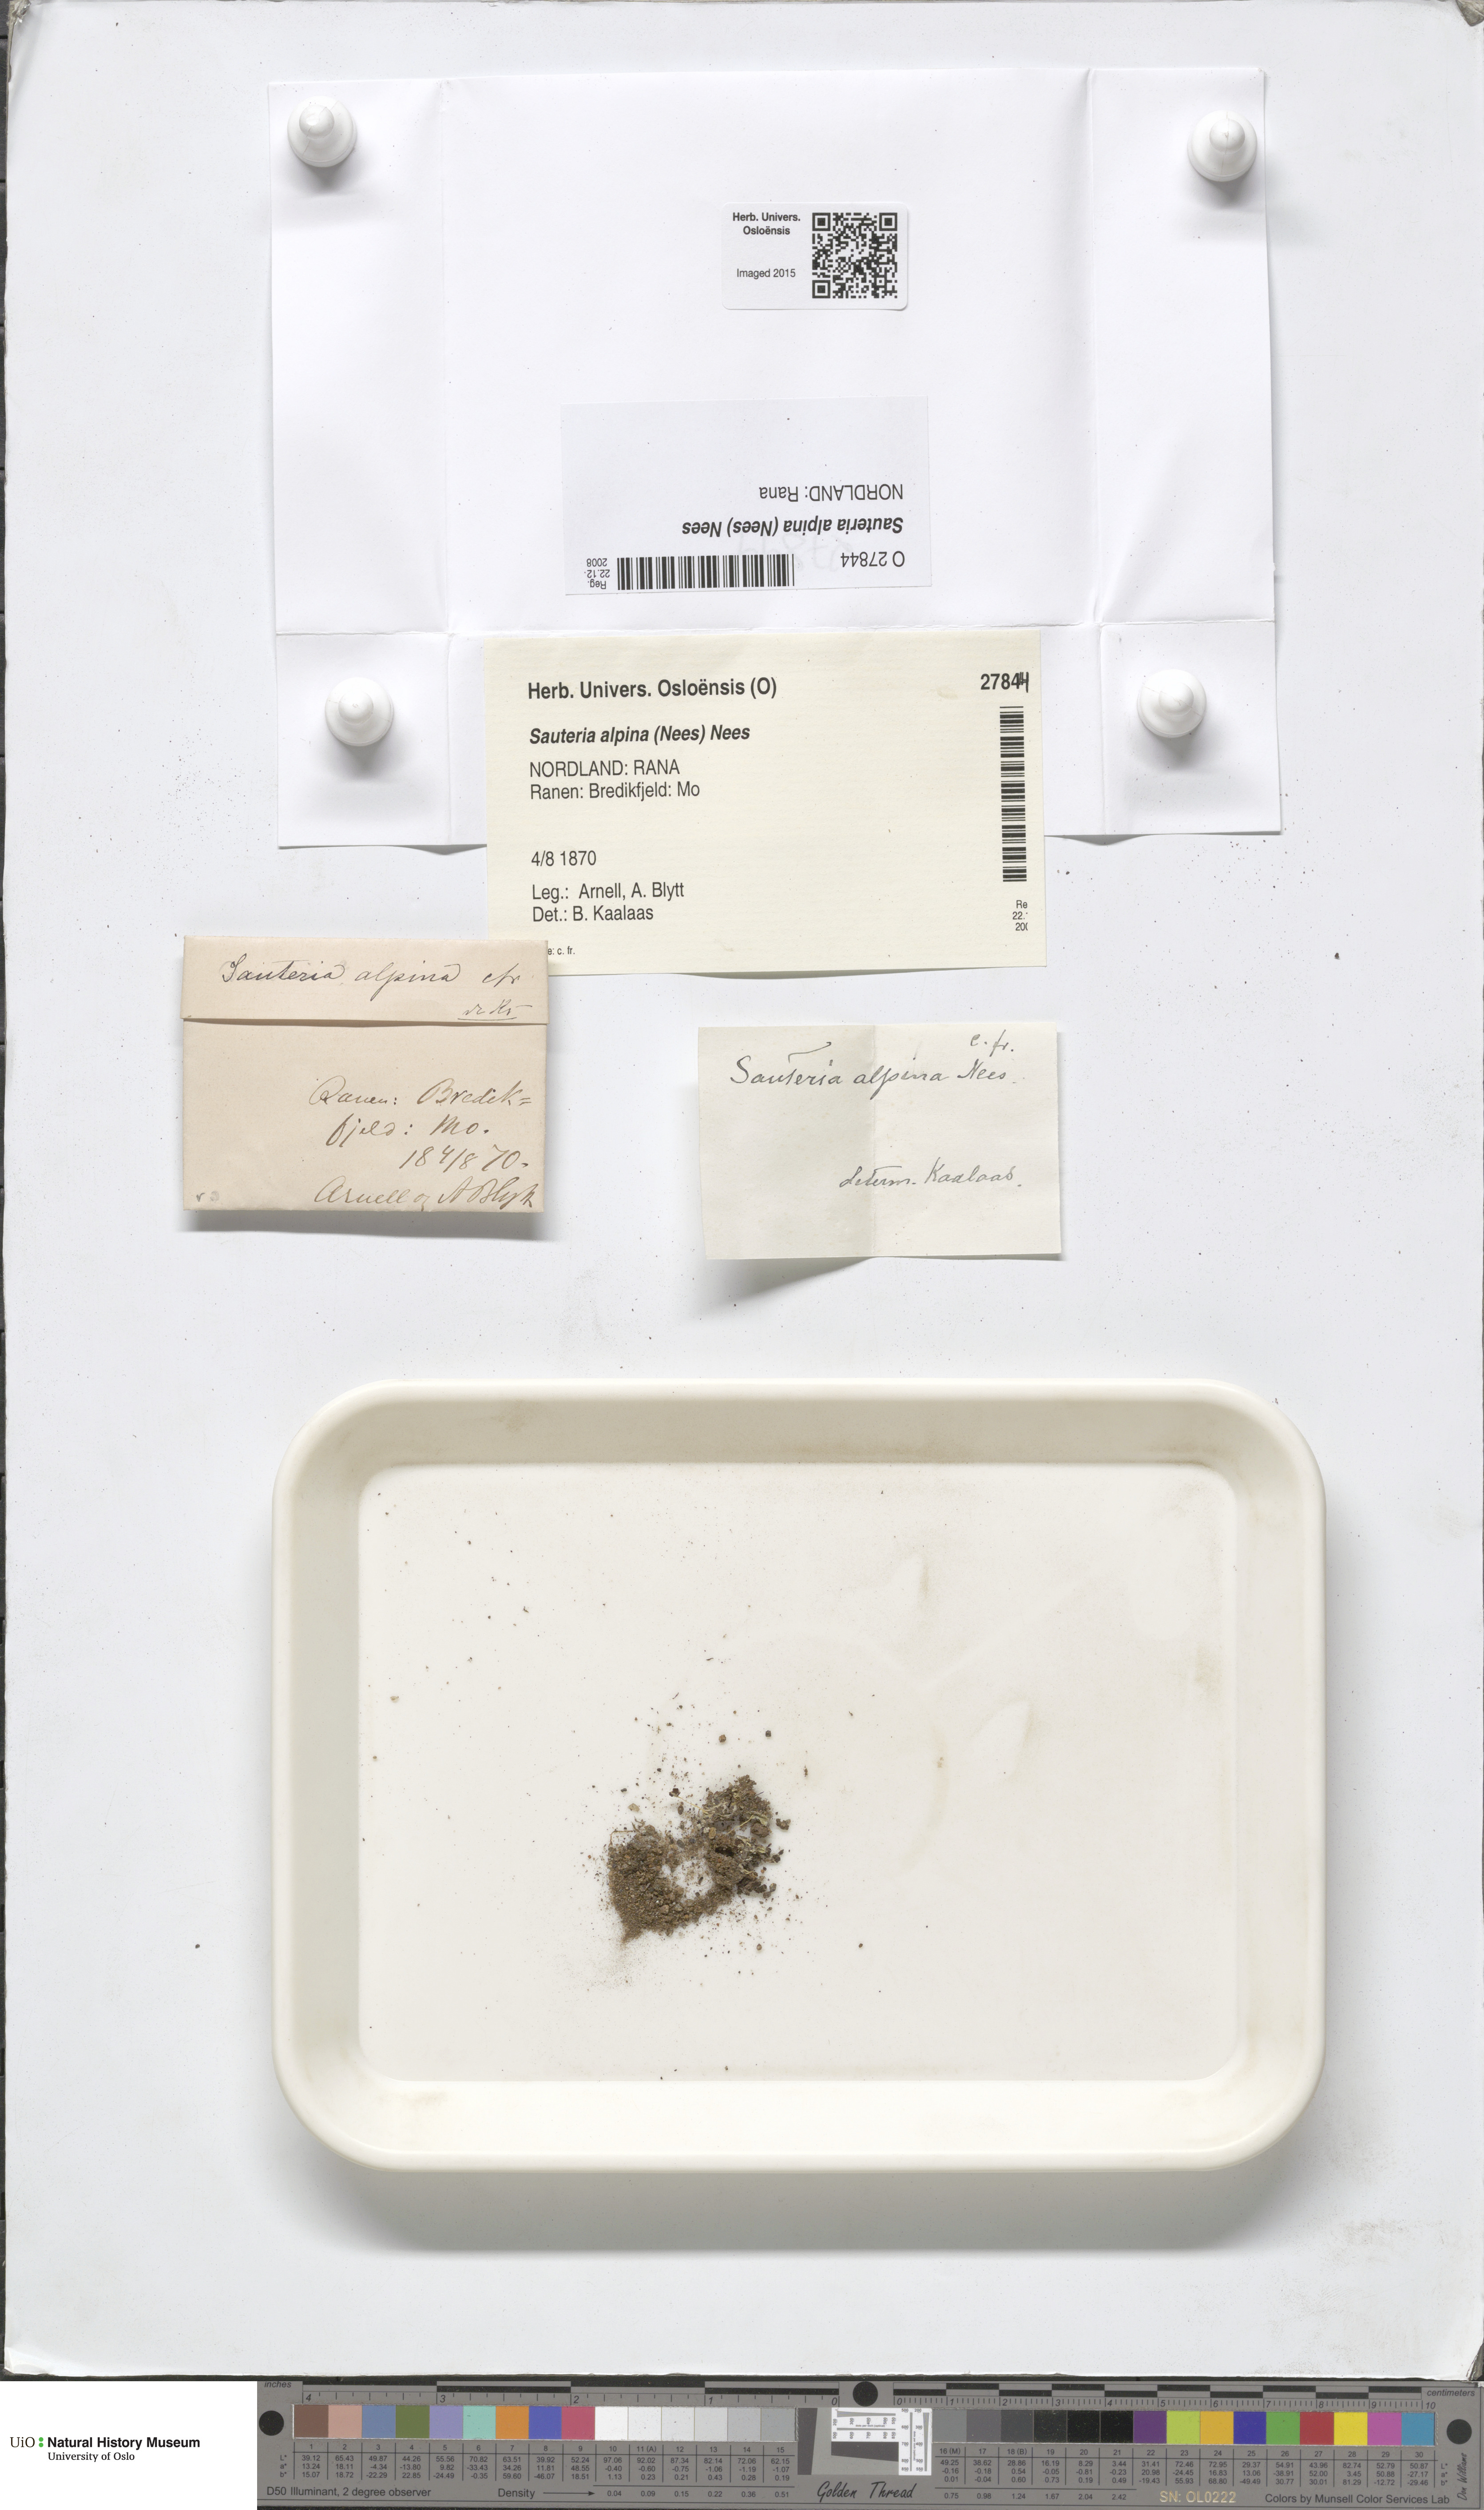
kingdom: Plantae
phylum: Marchantiophyta
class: Marchantiopsida
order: Marchantiales
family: Cleveaceae
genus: Sauteria
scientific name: Sauteria alpina
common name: Snow lungwort
